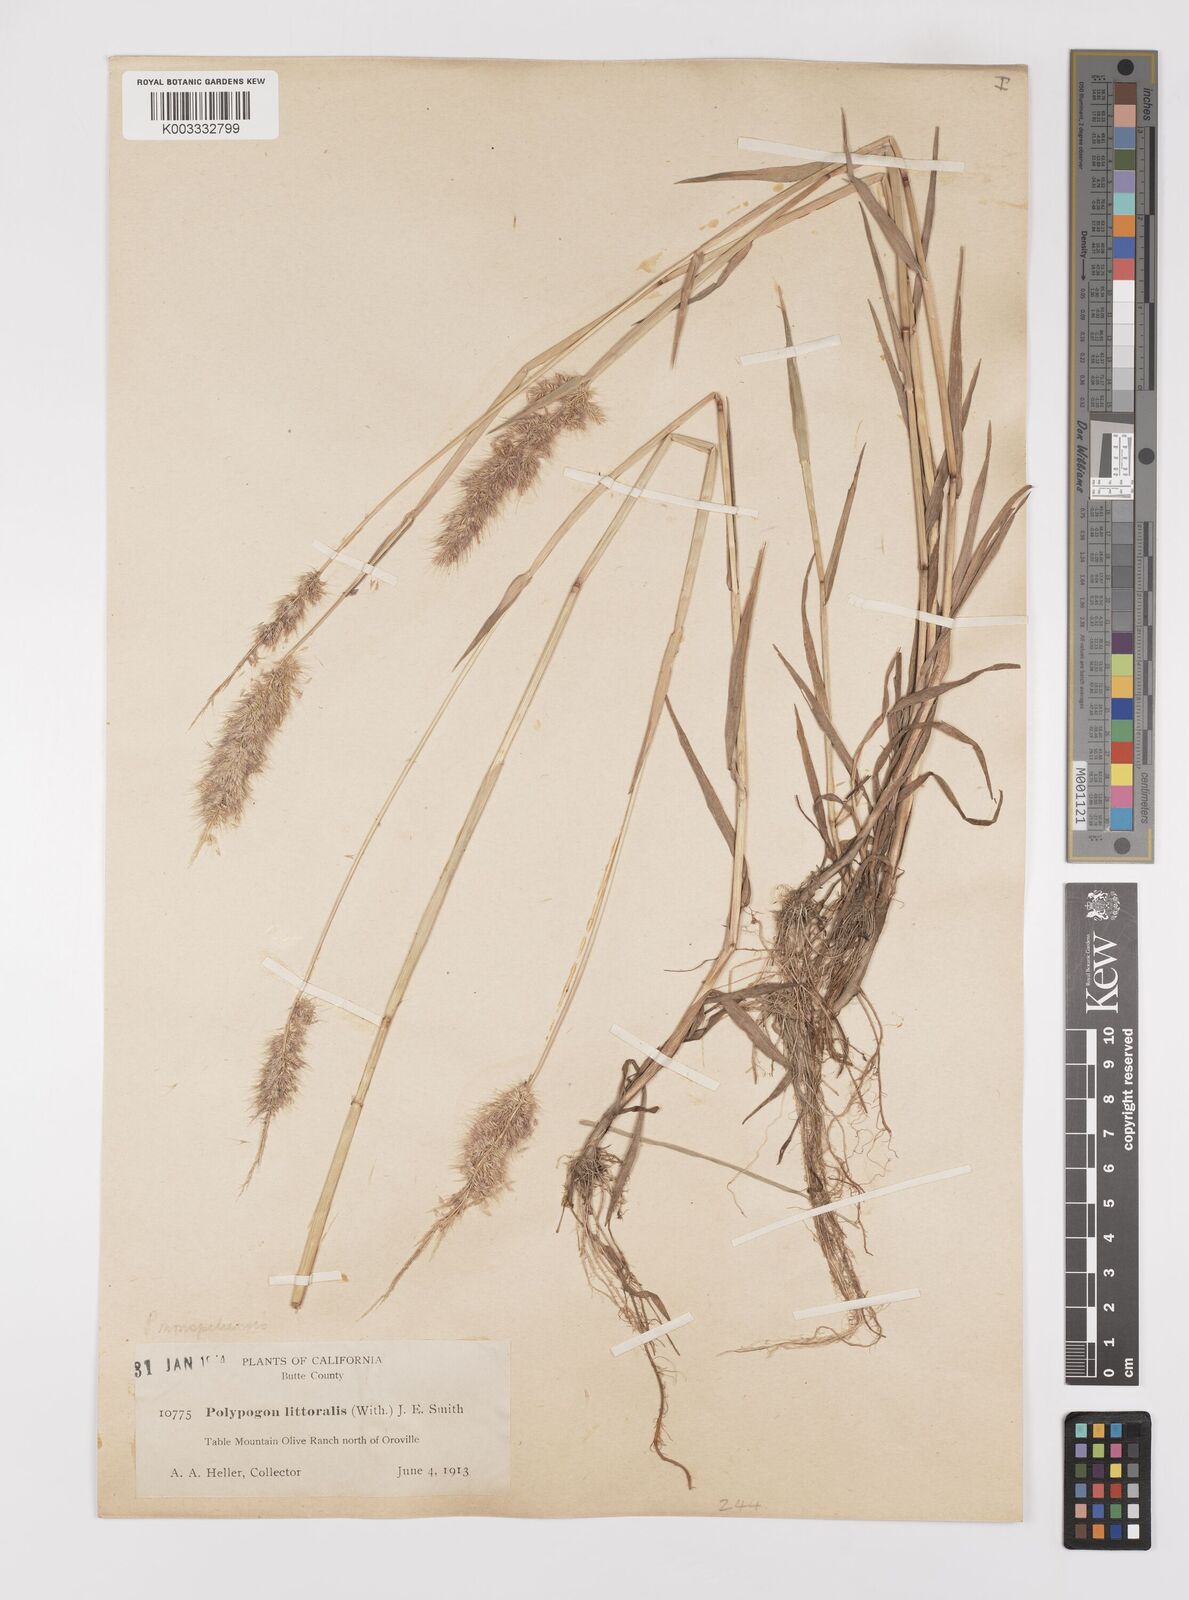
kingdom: Plantae
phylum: Tracheophyta
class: Liliopsida
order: Poales
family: Poaceae
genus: Polypogon
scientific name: Polypogon monspeliensis
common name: Annual rabbitsfoot grass
